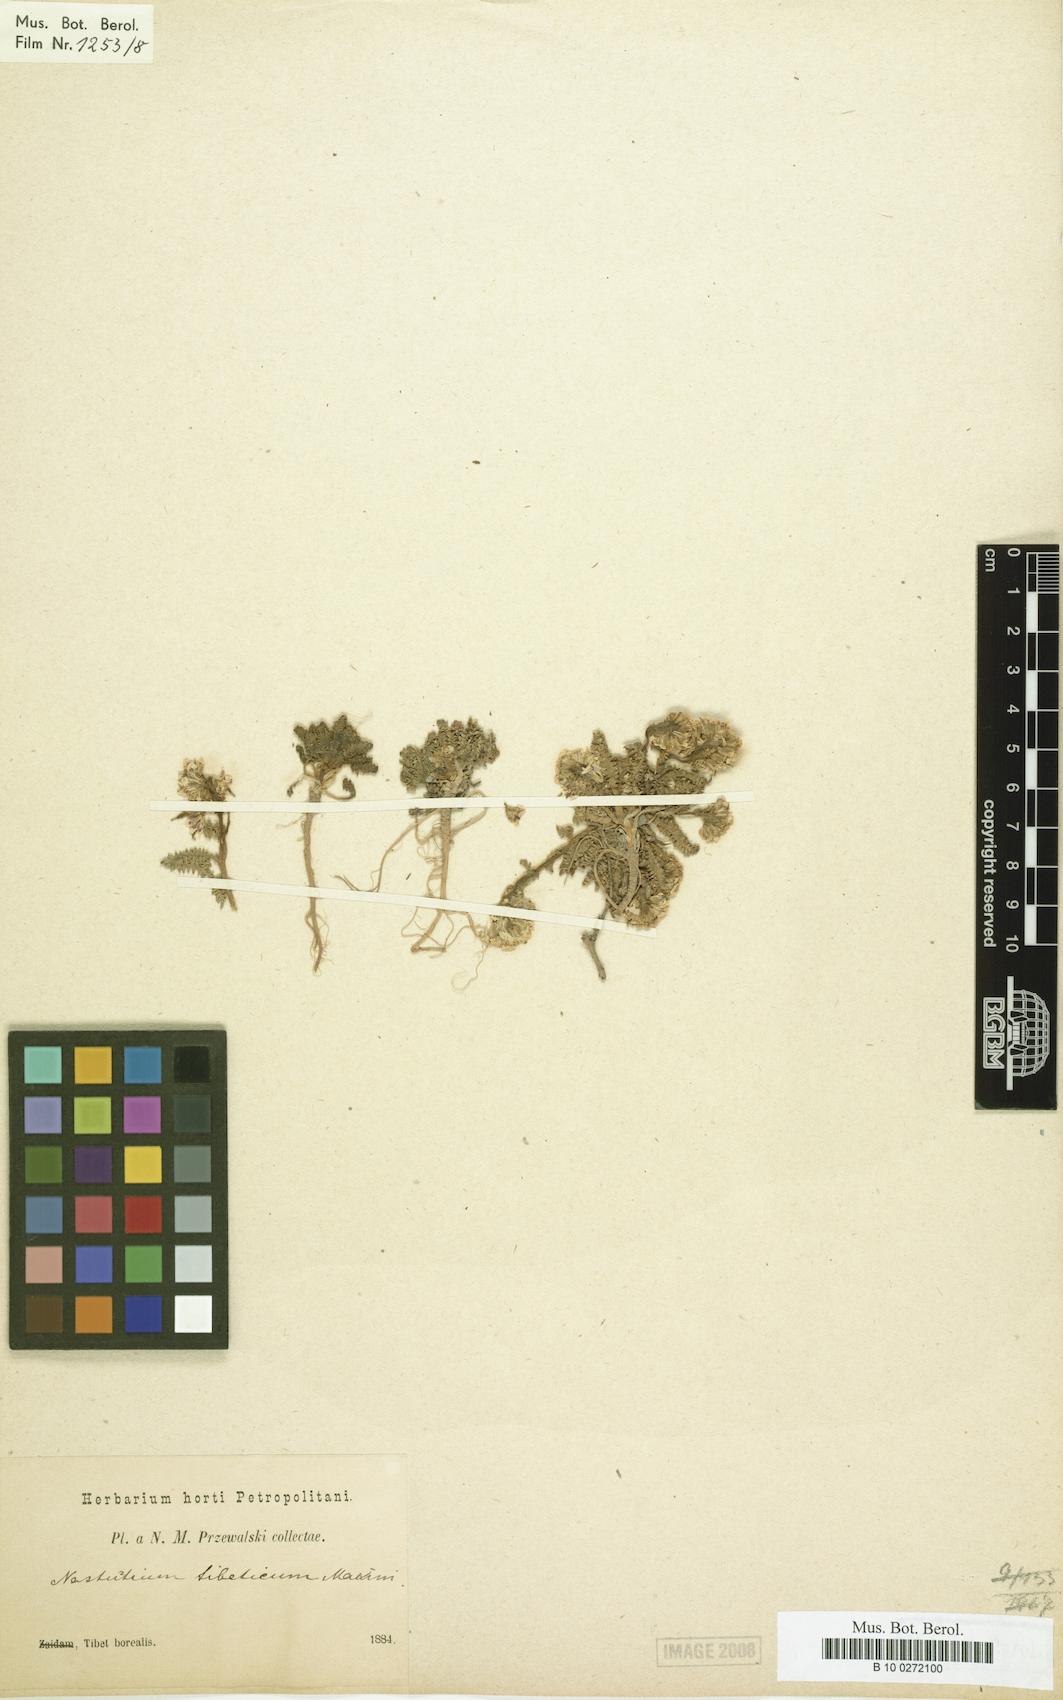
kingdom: Plantae
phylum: Tracheophyta
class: Magnoliopsida
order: Brassicales
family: Brassicaceae
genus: Shehbazia
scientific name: Shehbazia tibetica
